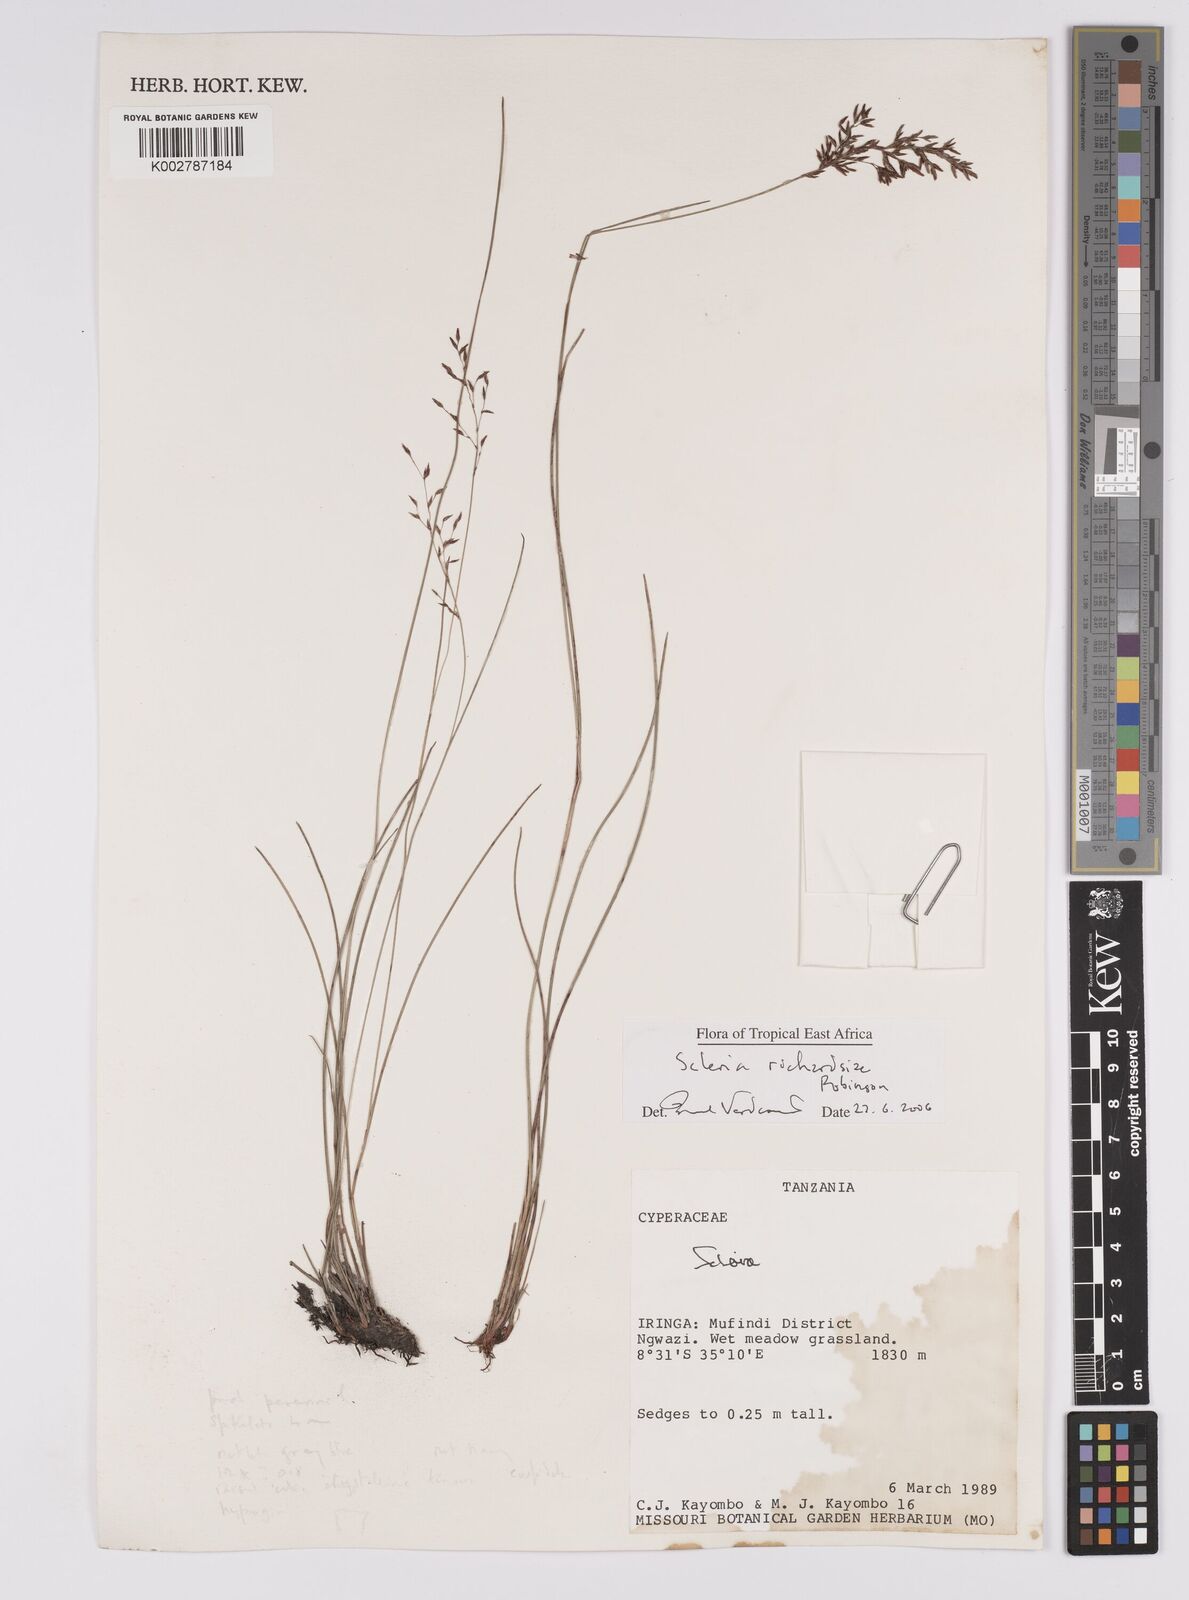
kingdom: Plantae
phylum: Tracheophyta
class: Liliopsida
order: Poales
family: Cyperaceae
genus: Scleria
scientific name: Scleria richardsiae
